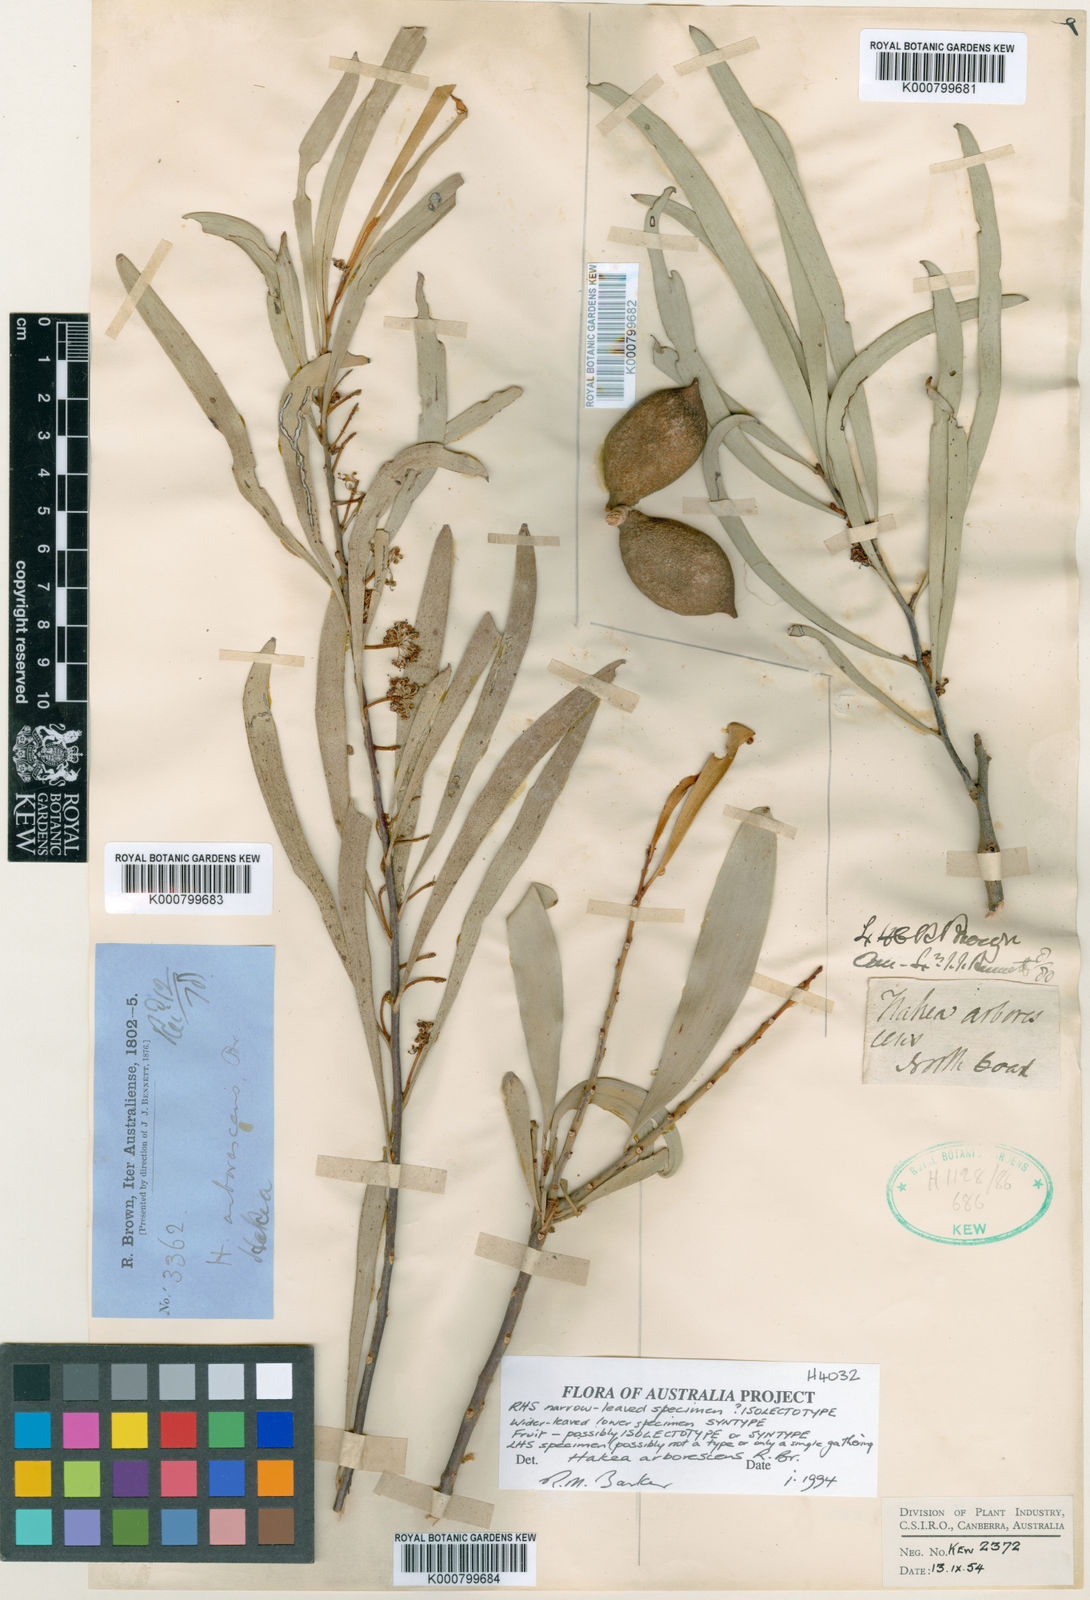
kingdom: Plantae
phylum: Tracheophyta
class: Magnoliopsida
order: Proteales
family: Proteaceae
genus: Hakea
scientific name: Hakea arborescens
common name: Yellow hakea
